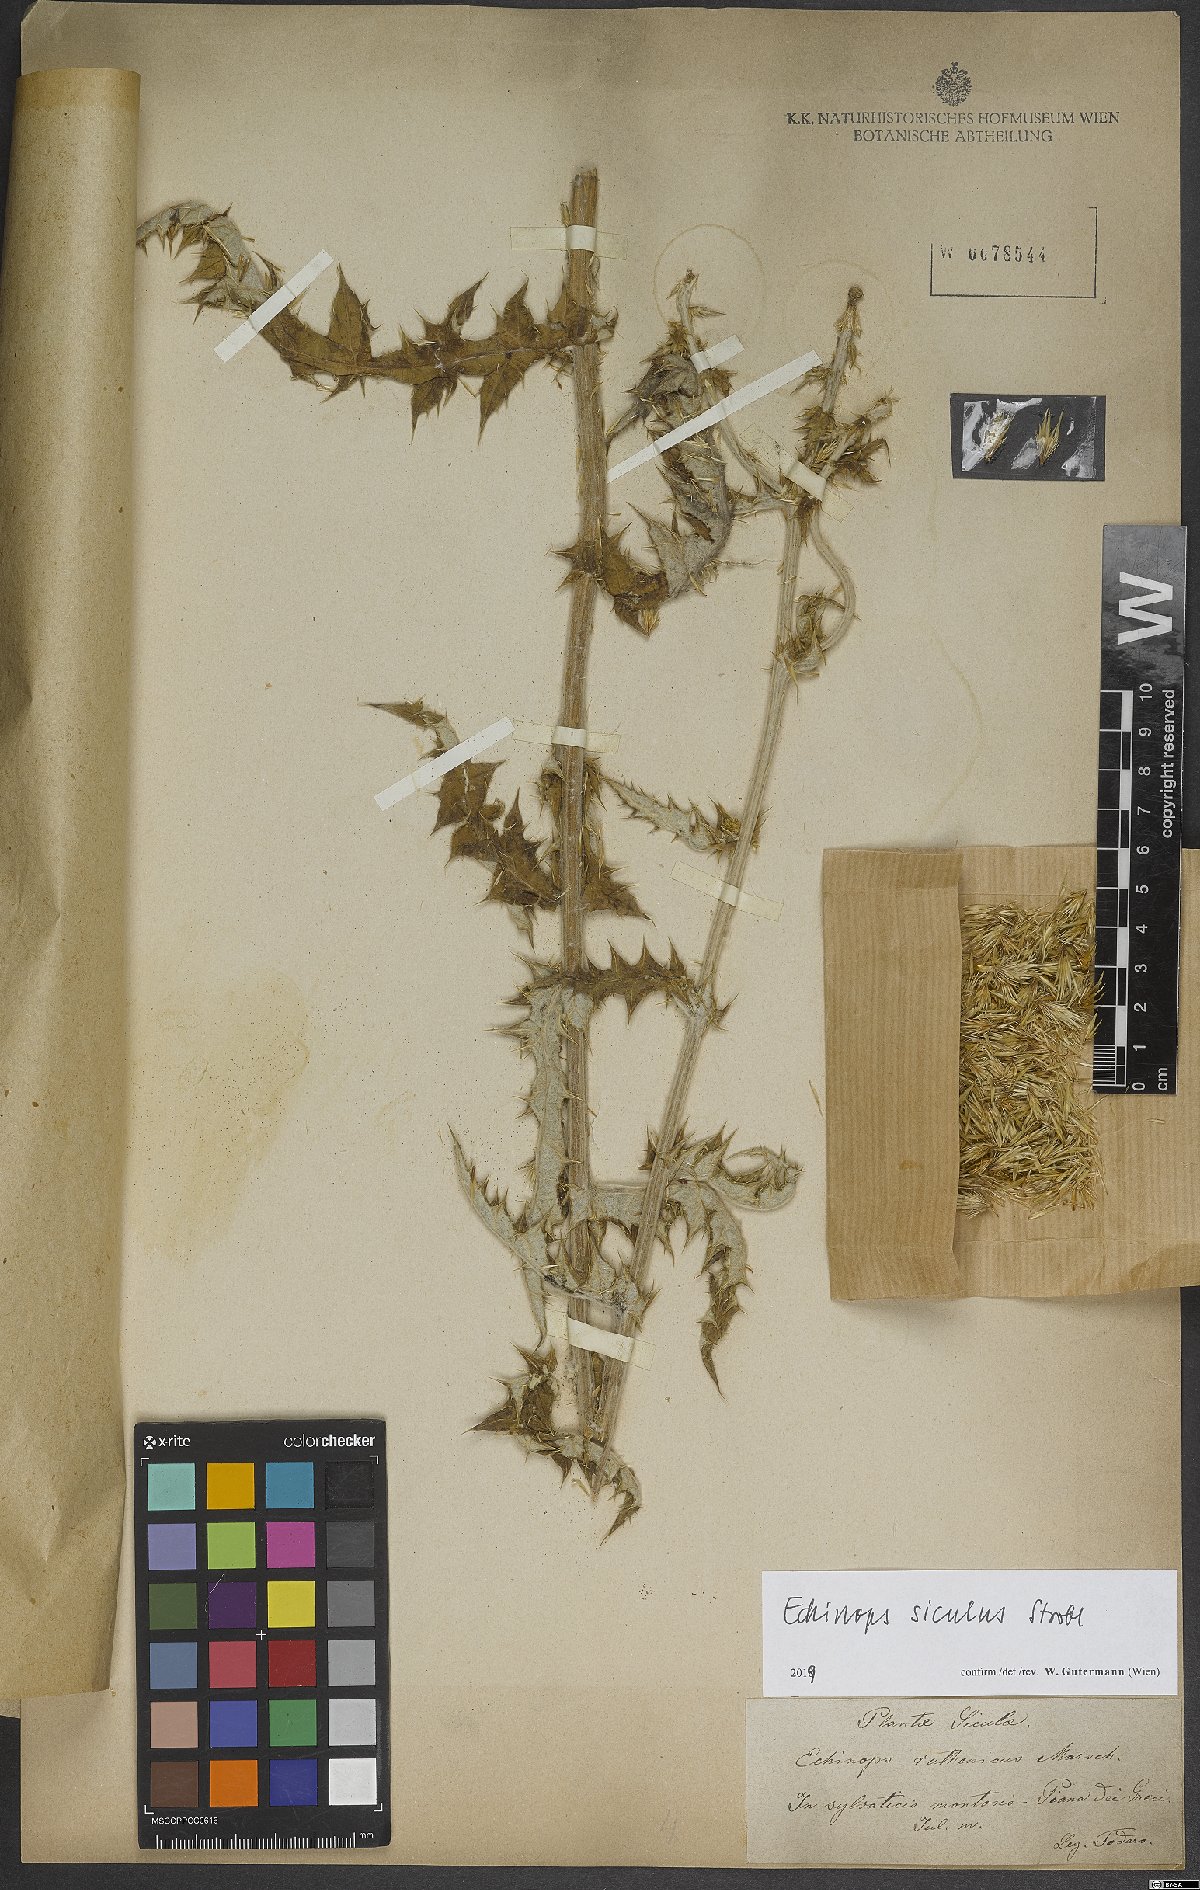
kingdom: Plantae
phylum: Tracheophyta
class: Magnoliopsida
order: Asterales
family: Asteraceae
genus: Echinops
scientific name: Echinops ritro
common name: Globe thistle
